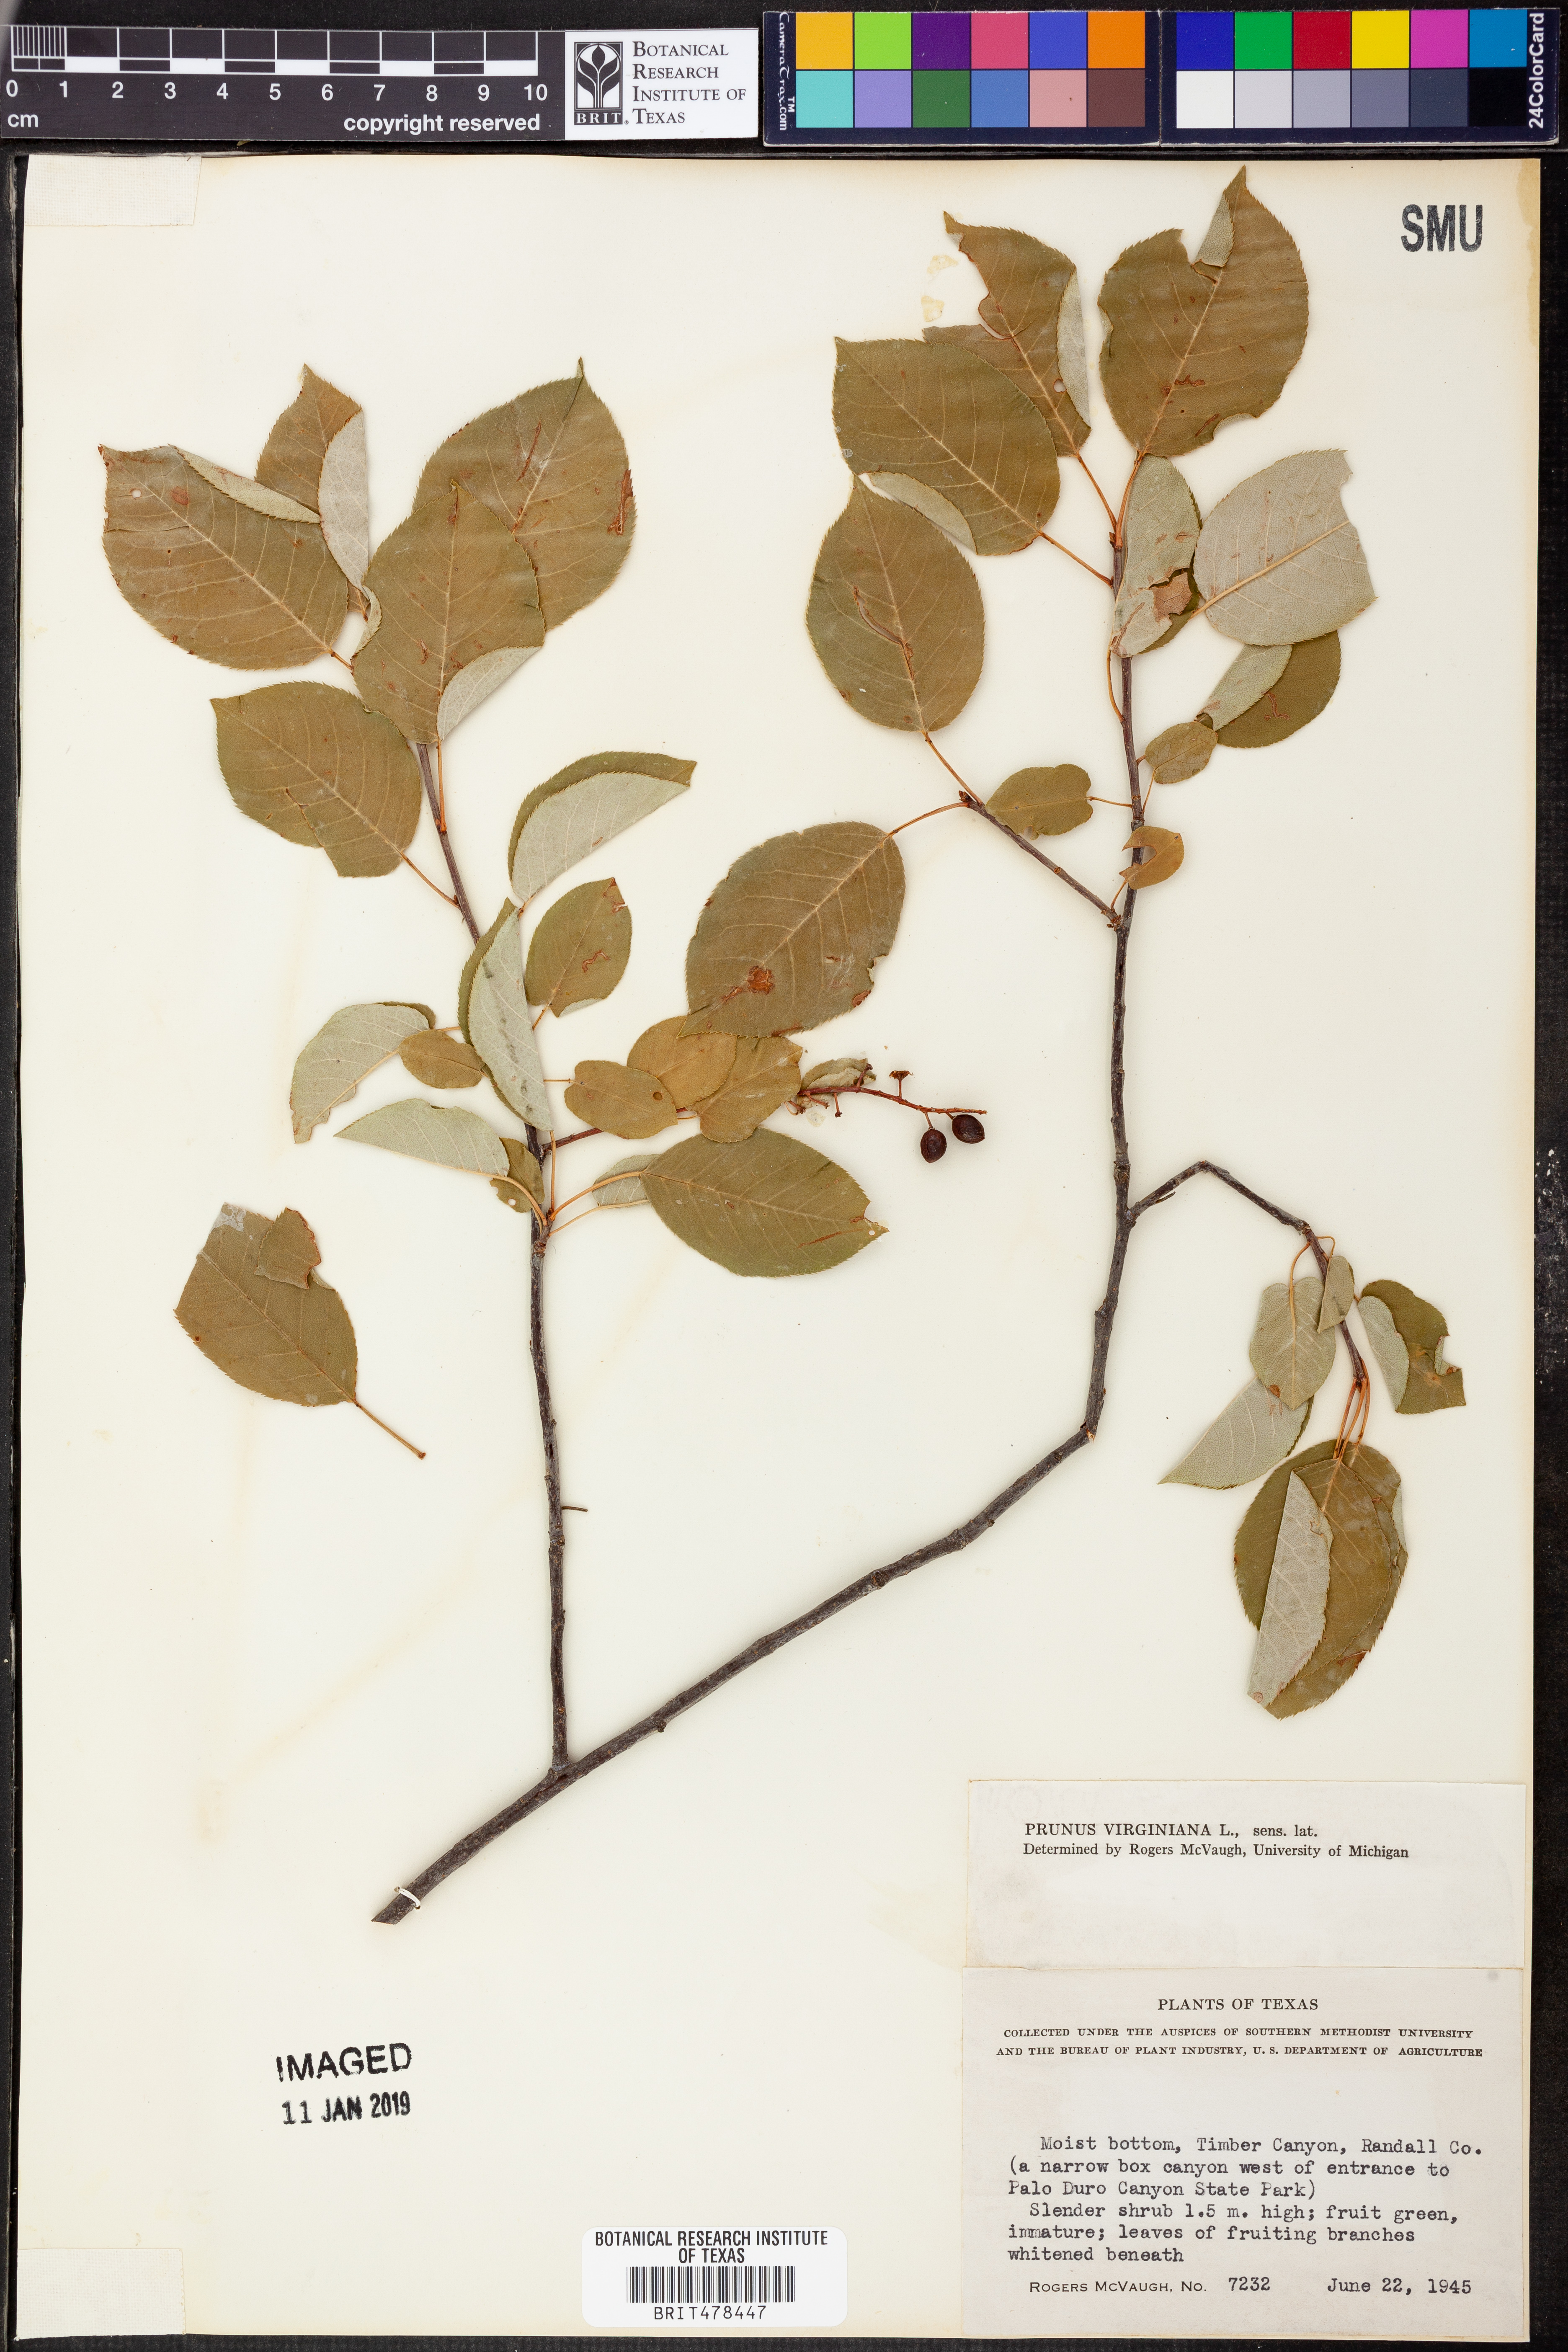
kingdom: Plantae
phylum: Tracheophyta
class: Magnoliopsida
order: Rosales
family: Rosaceae
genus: Prunus
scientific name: Prunus virginiana
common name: Chokecherry
